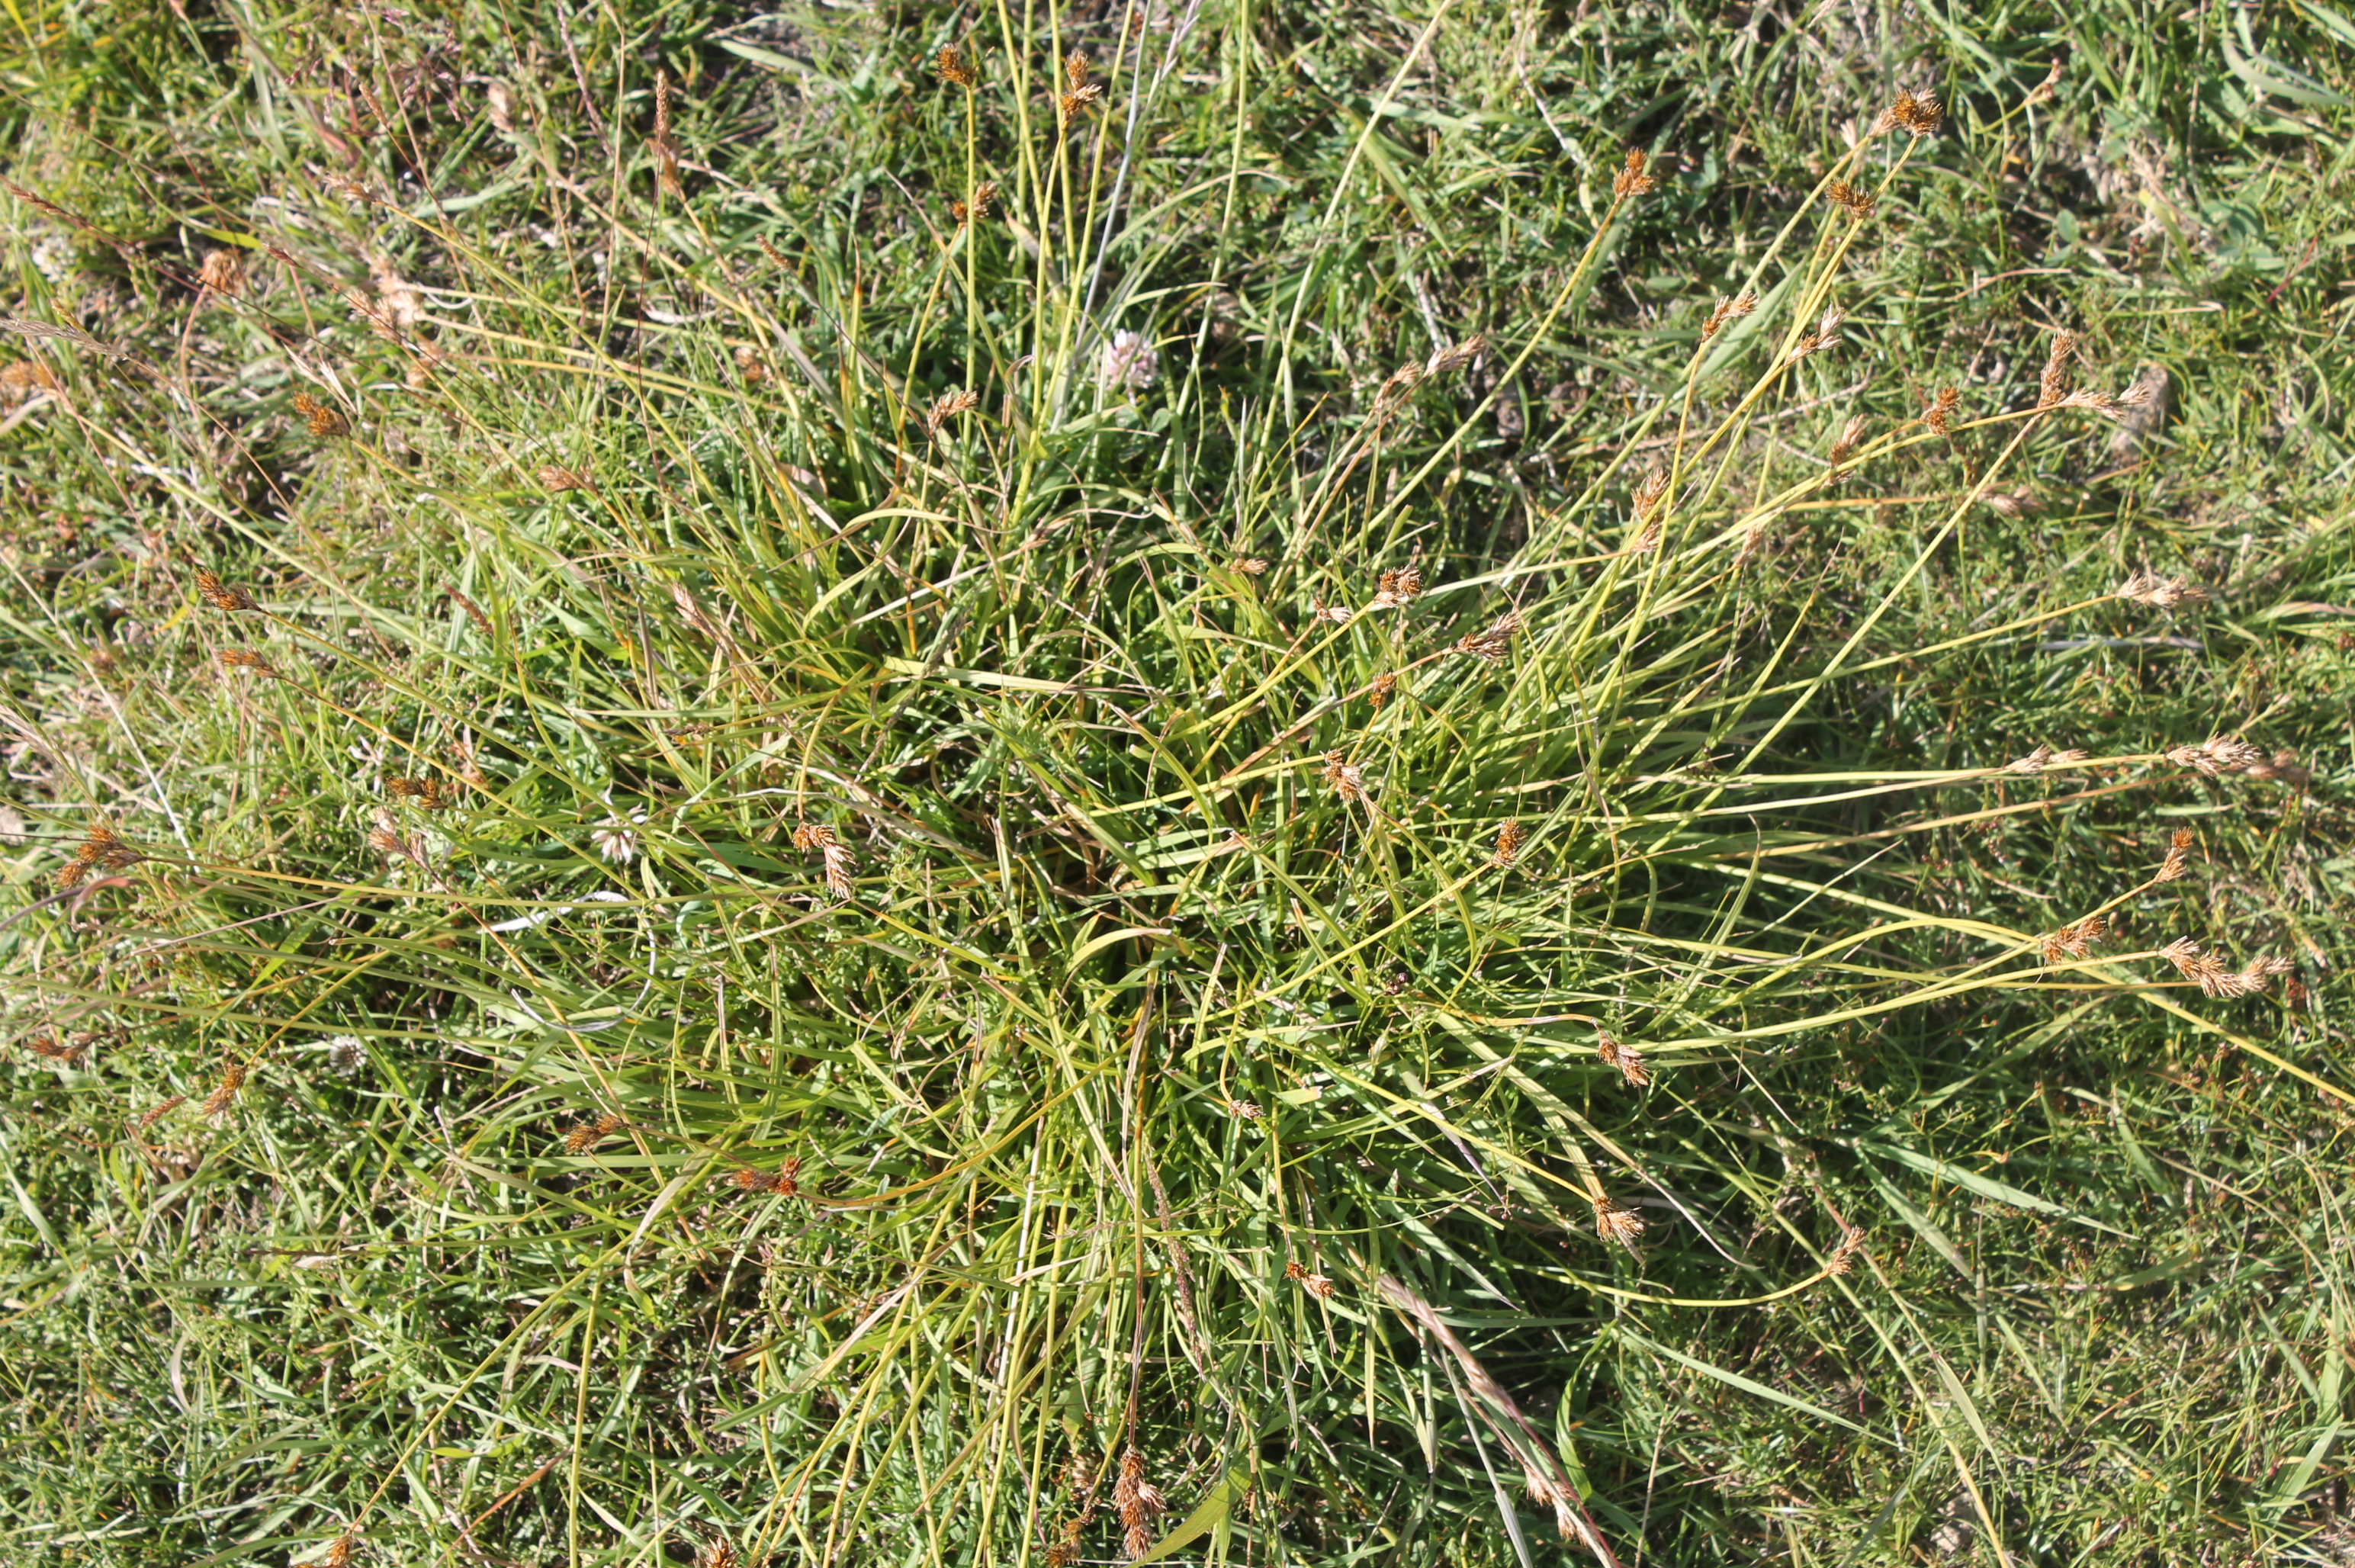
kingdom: Plantae
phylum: Tracheophyta
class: Liliopsida
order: Poales
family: Cyperaceae
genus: Carex
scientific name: Carex leporina
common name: Hare-star
